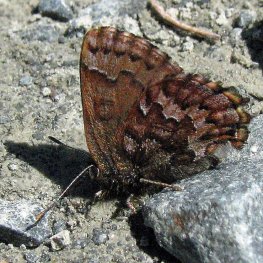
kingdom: Animalia
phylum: Arthropoda
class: Insecta
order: Lepidoptera
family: Lycaenidae
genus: Incisalia
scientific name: Incisalia niphon
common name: Eastern Pine Elfin
